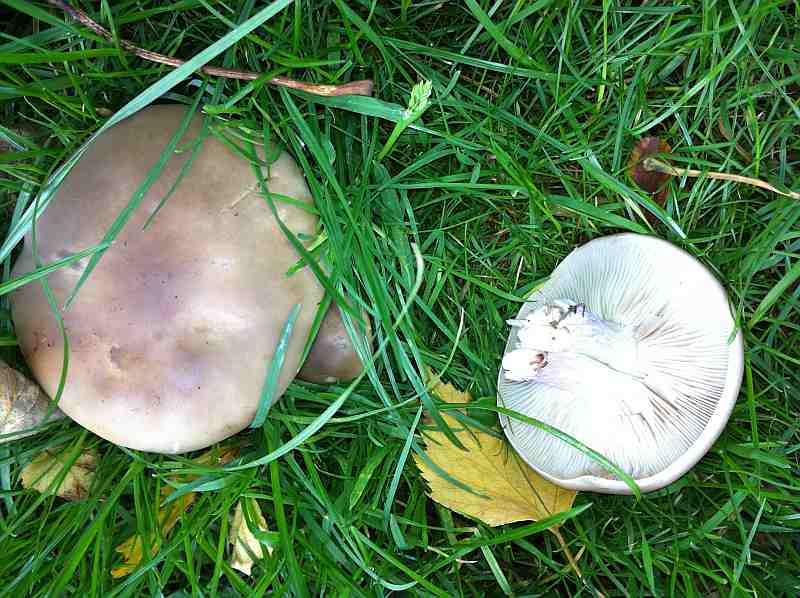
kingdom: Fungi
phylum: Basidiomycota
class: Agaricomycetes
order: Agaricales
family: Tricholomataceae
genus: Lepista
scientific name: Lepista personata
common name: bleg hekseringshat
